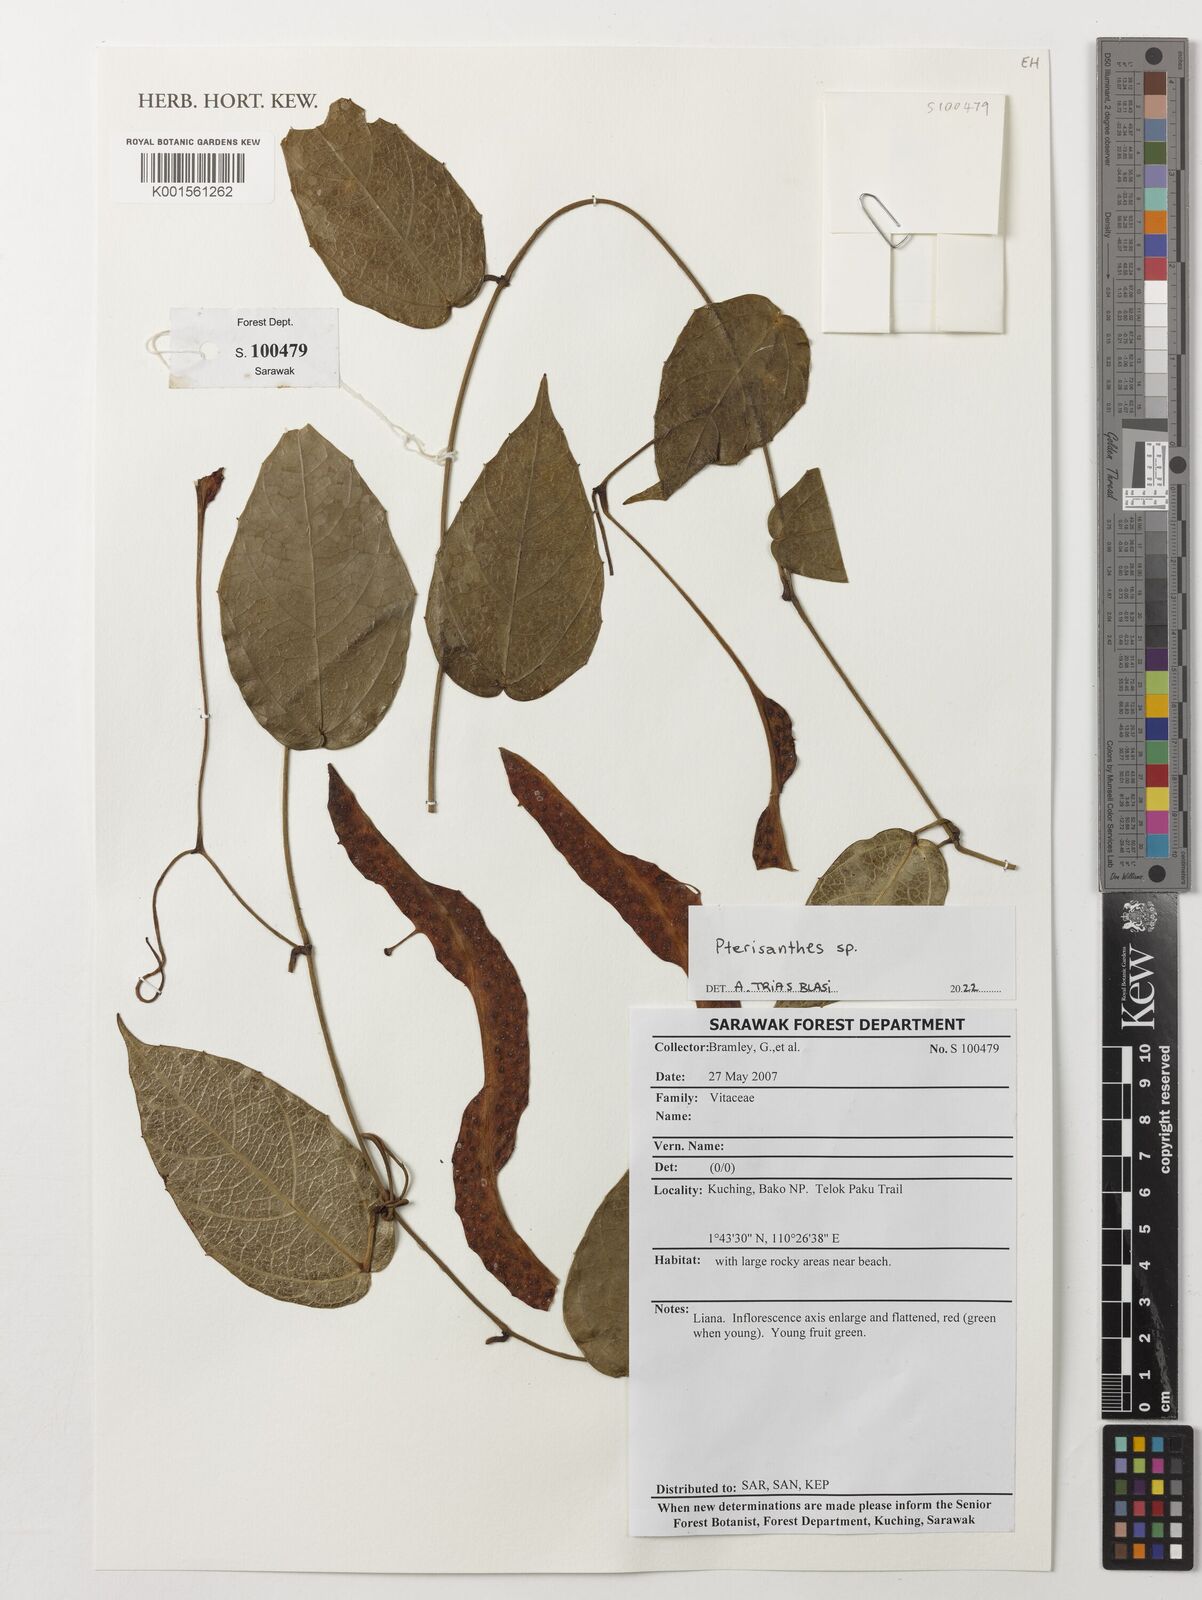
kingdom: Plantae
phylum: Tracheophyta
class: Magnoliopsida
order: Vitales
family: Vitaceae
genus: Pterisanthes
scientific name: Pterisanthes
